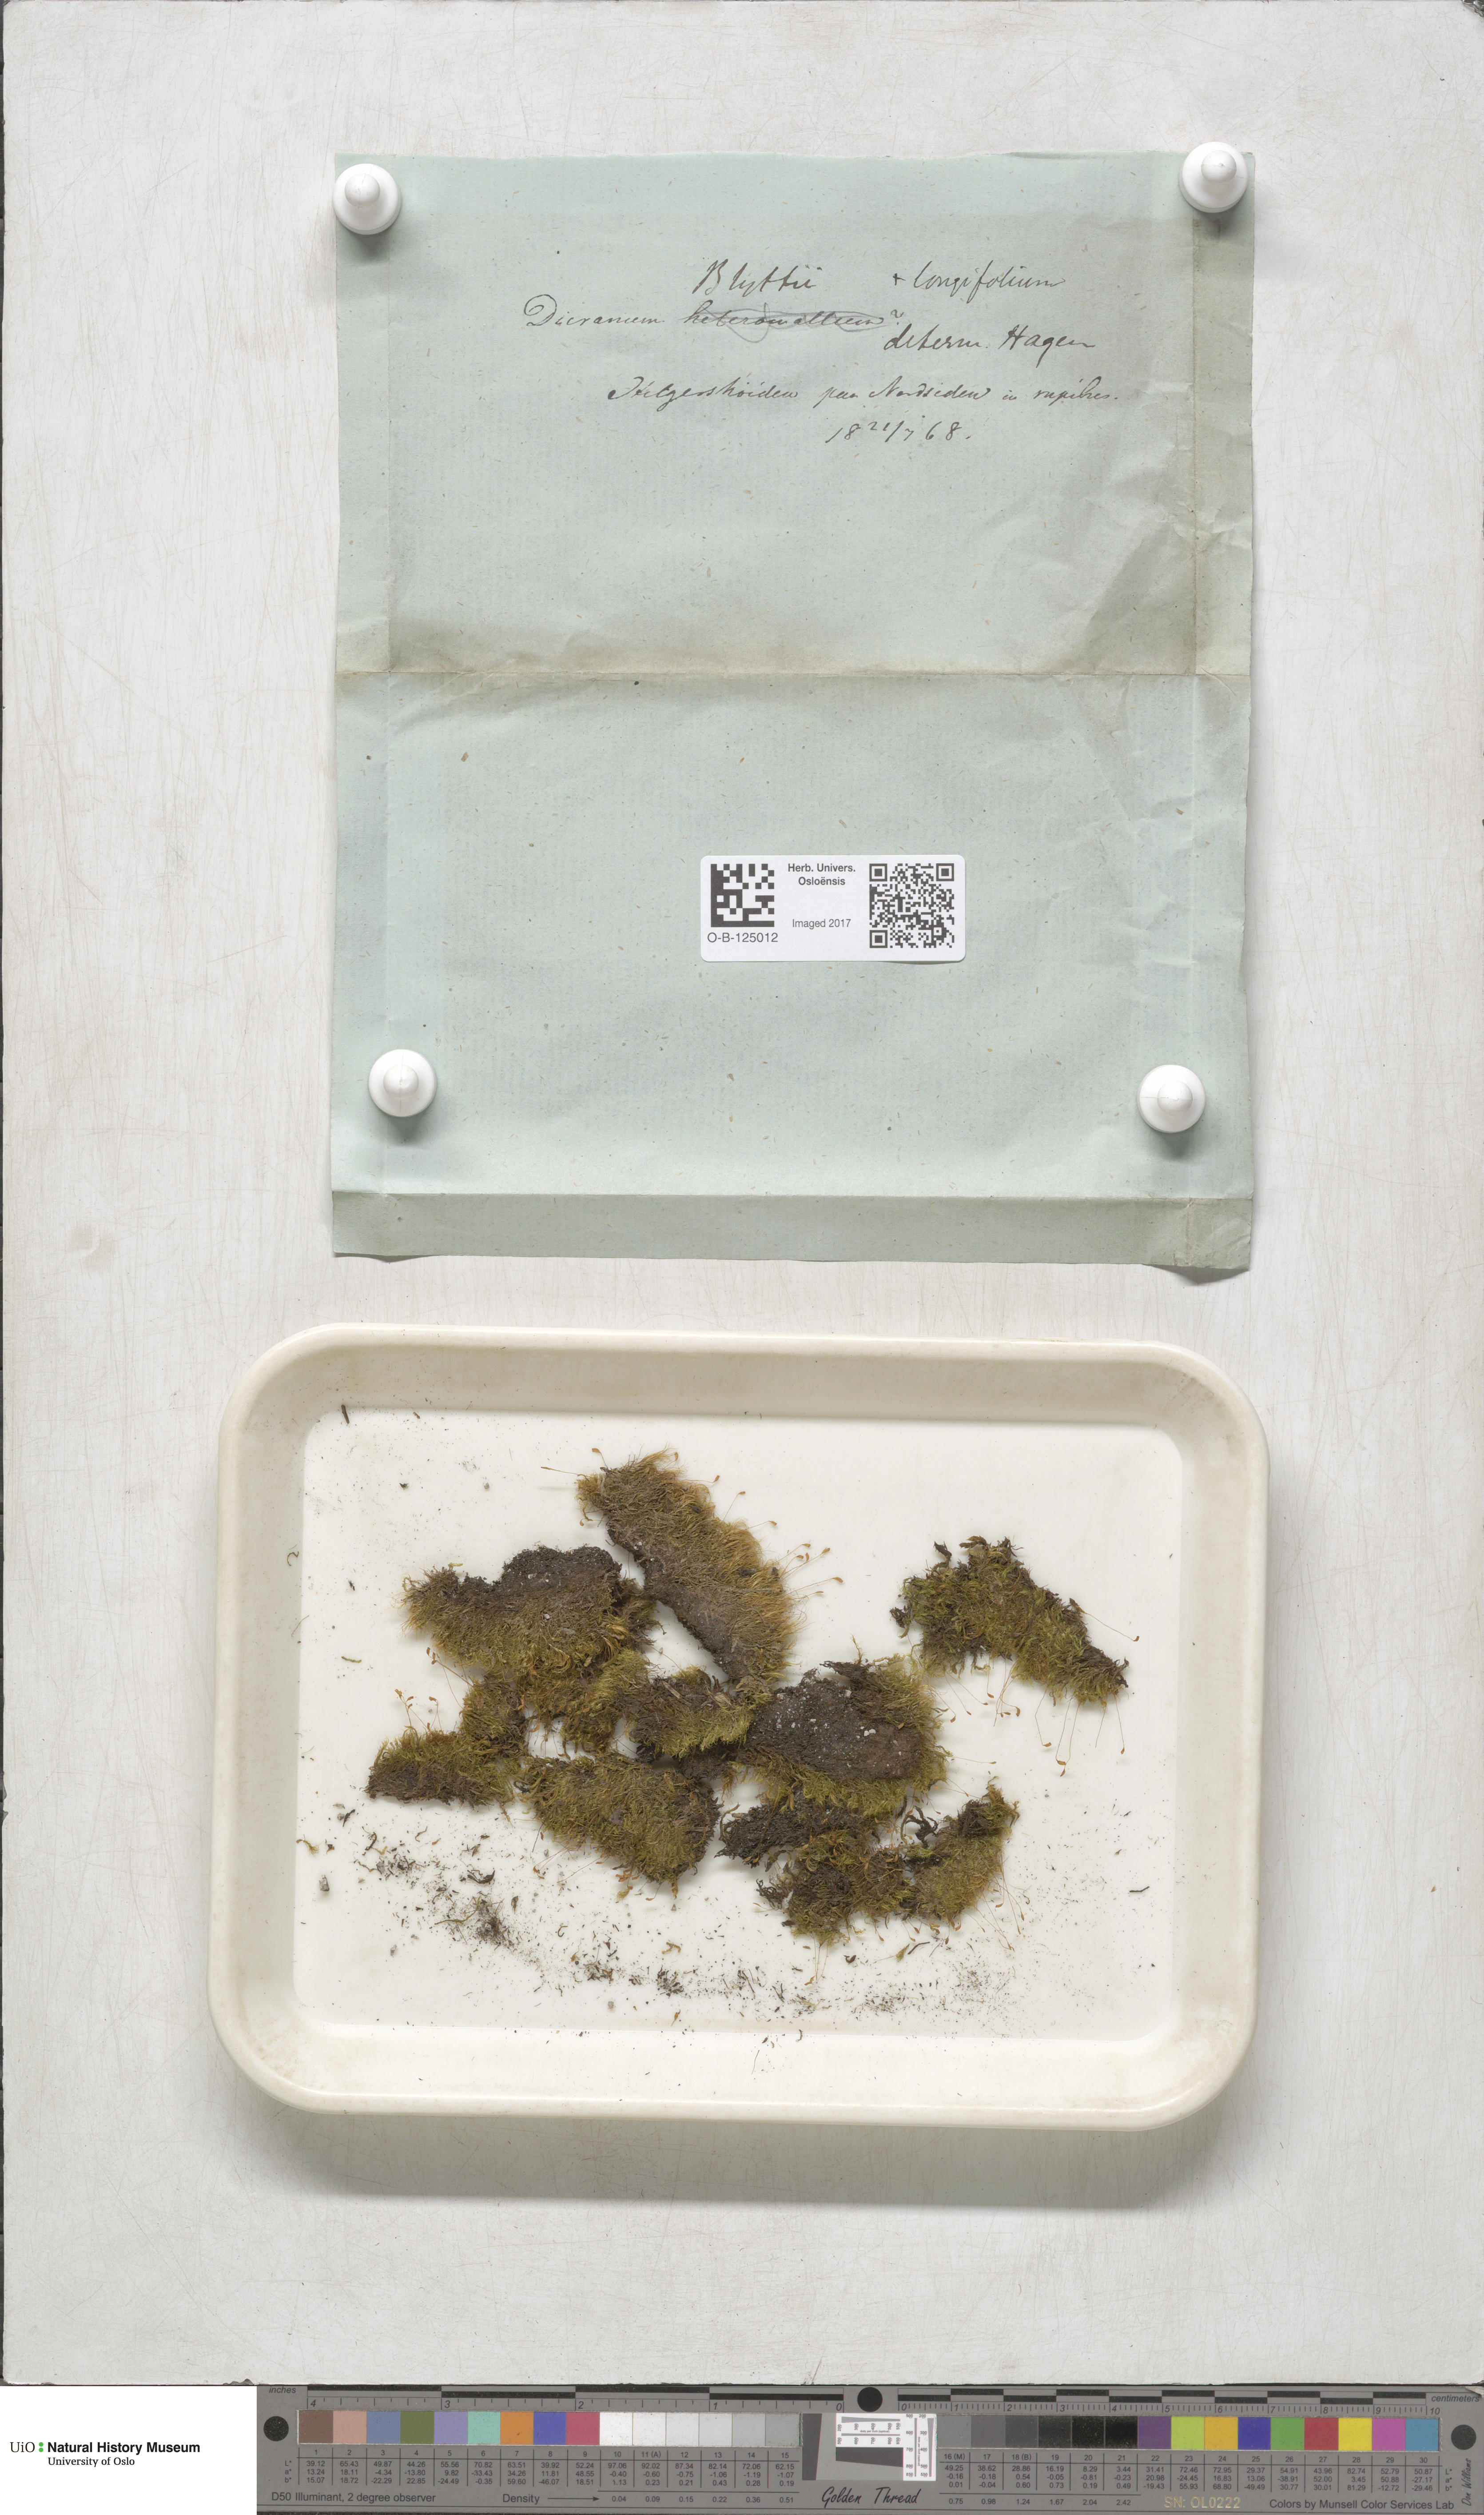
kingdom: Plantae
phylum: Bryophyta
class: Bryopsida
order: Dicranales
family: Rhabdoweisiaceae
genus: Arctoa
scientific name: Arctoa blyttii
